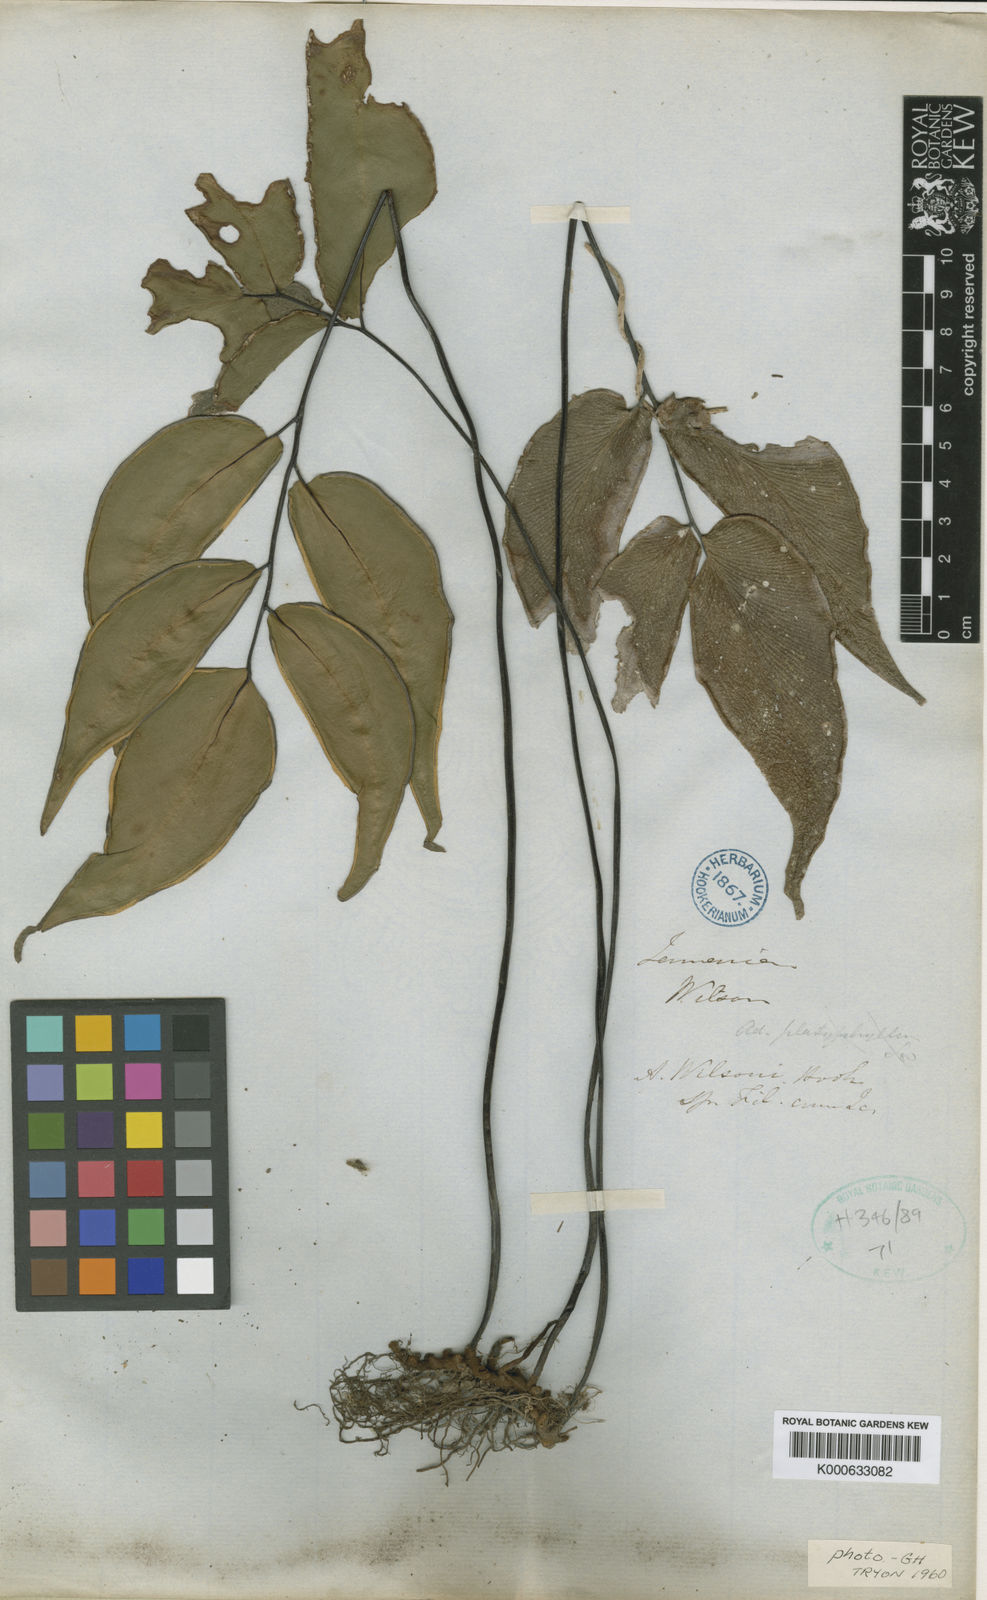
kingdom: Plantae
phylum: Tracheophyta
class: Polypodiopsida
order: Polypodiales
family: Pteridaceae
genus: Adiantum
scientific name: Adiantum wilsonii
